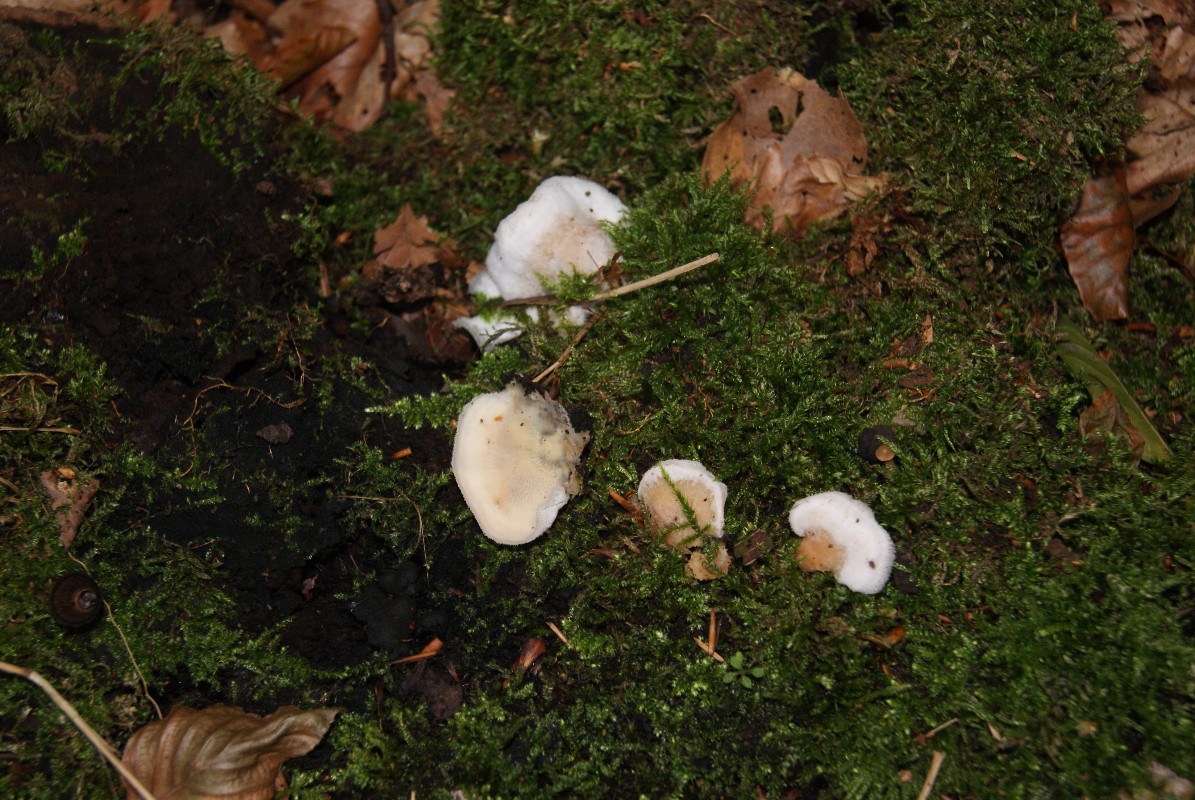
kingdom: Fungi
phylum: Basidiomycota
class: Agaricomycetes
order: Polyporales
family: Meruliaceae
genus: Phlebia
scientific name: Phlebia tremellosa
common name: bævrende åresvamp
